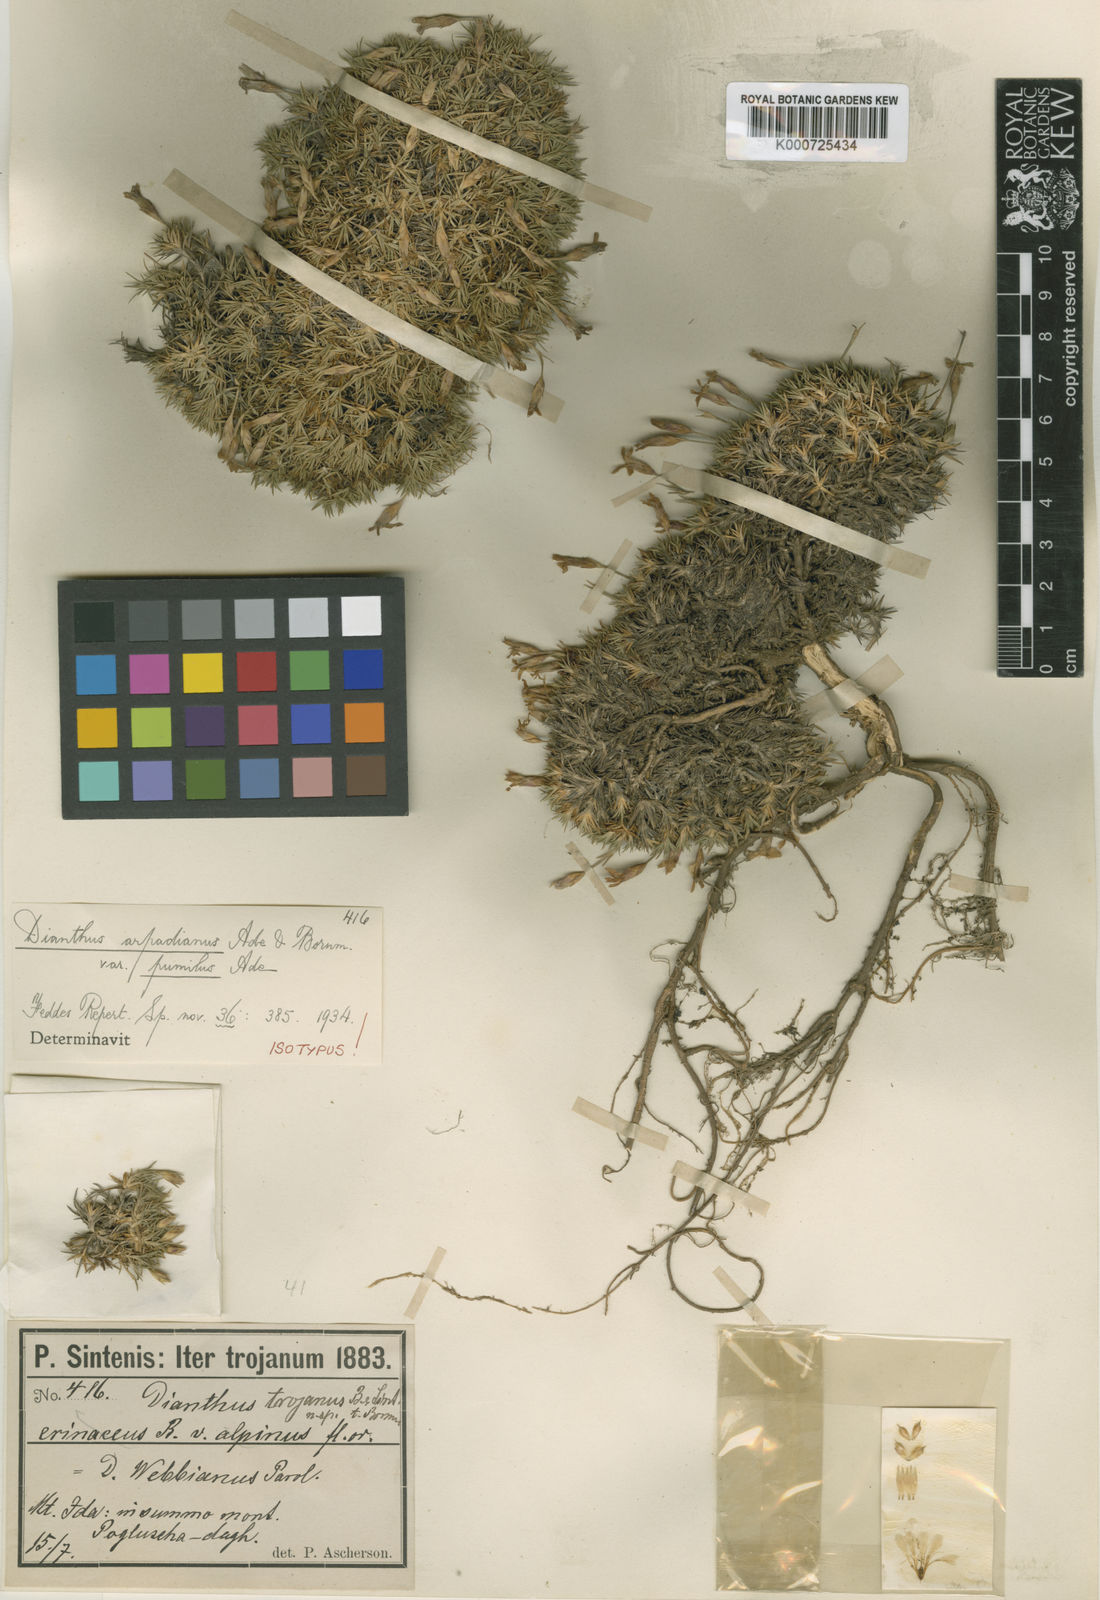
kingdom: Plantae
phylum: Tracheophyta
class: Magnoliopsida
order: Caryophyllales
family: Caryophyllaceae
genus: Dianthus
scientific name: Dianthus arpadianus
